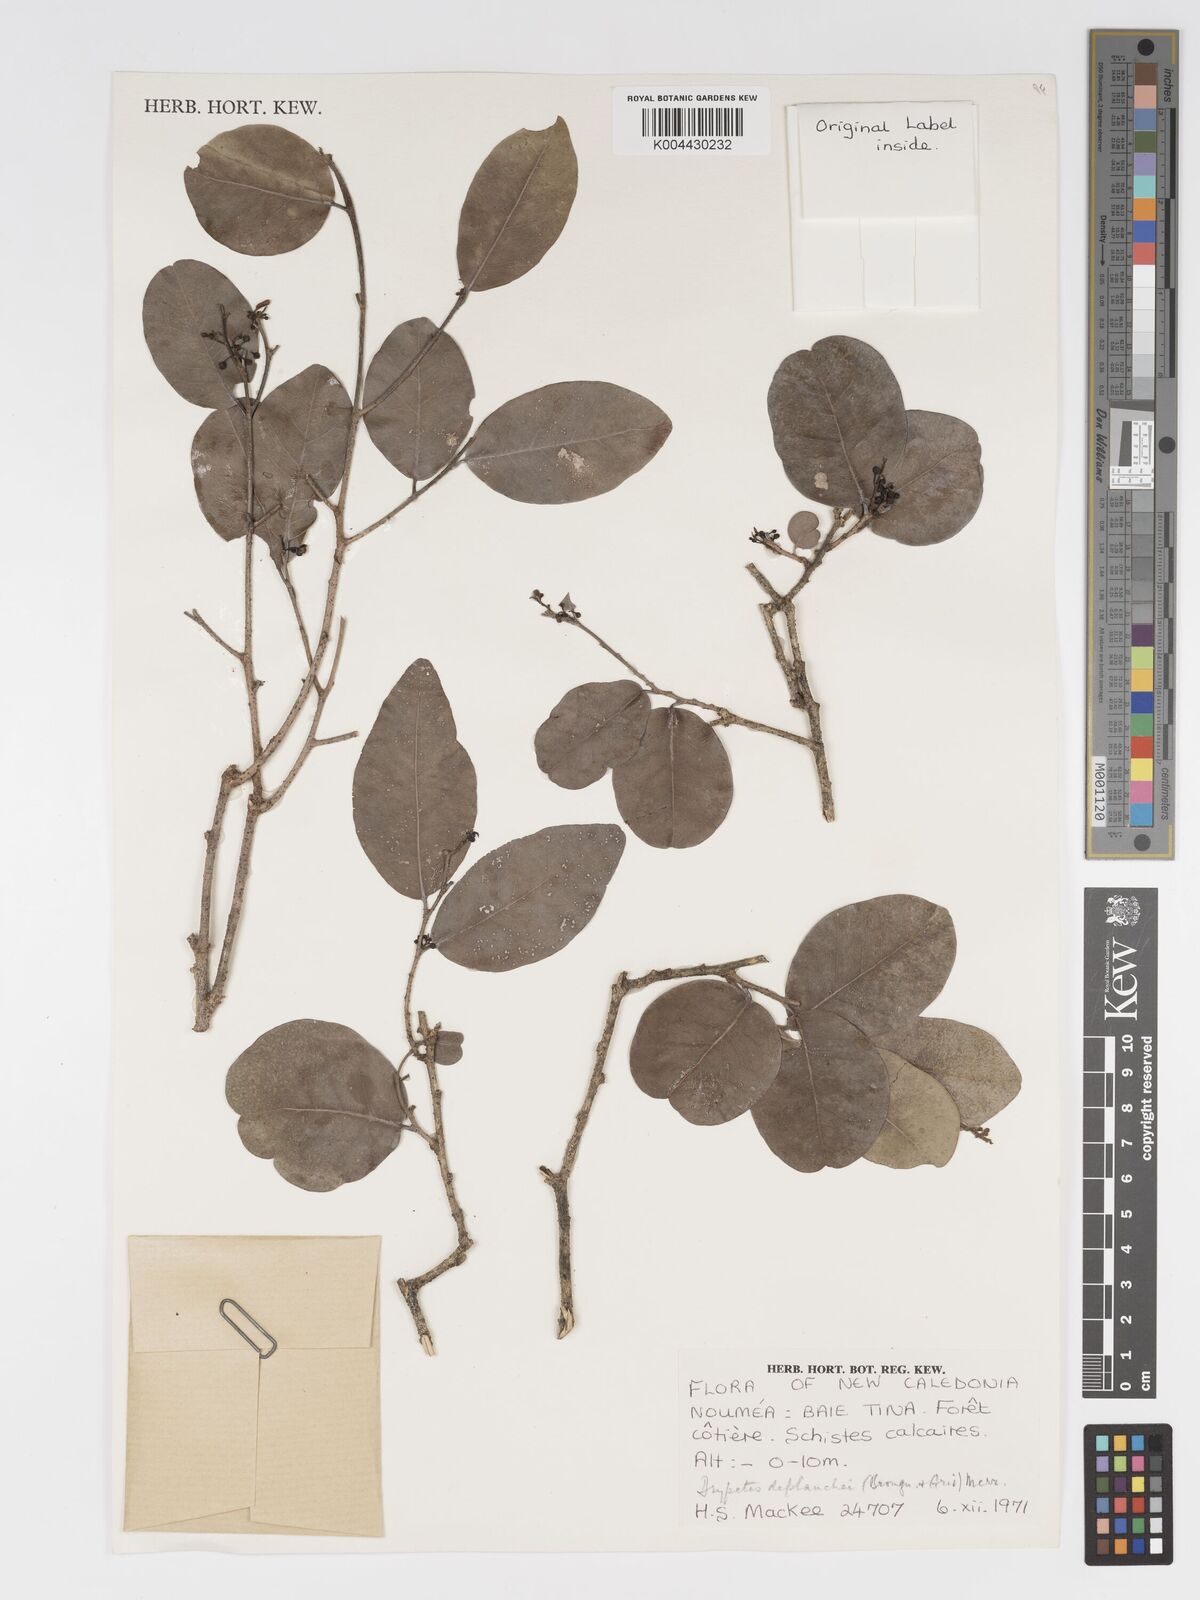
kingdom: Plantae
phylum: Tracheophyta
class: Magnoliopsida
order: Malpighiales
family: Putranjivaceae
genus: Drypetes
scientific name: Drypetes deplanchei
